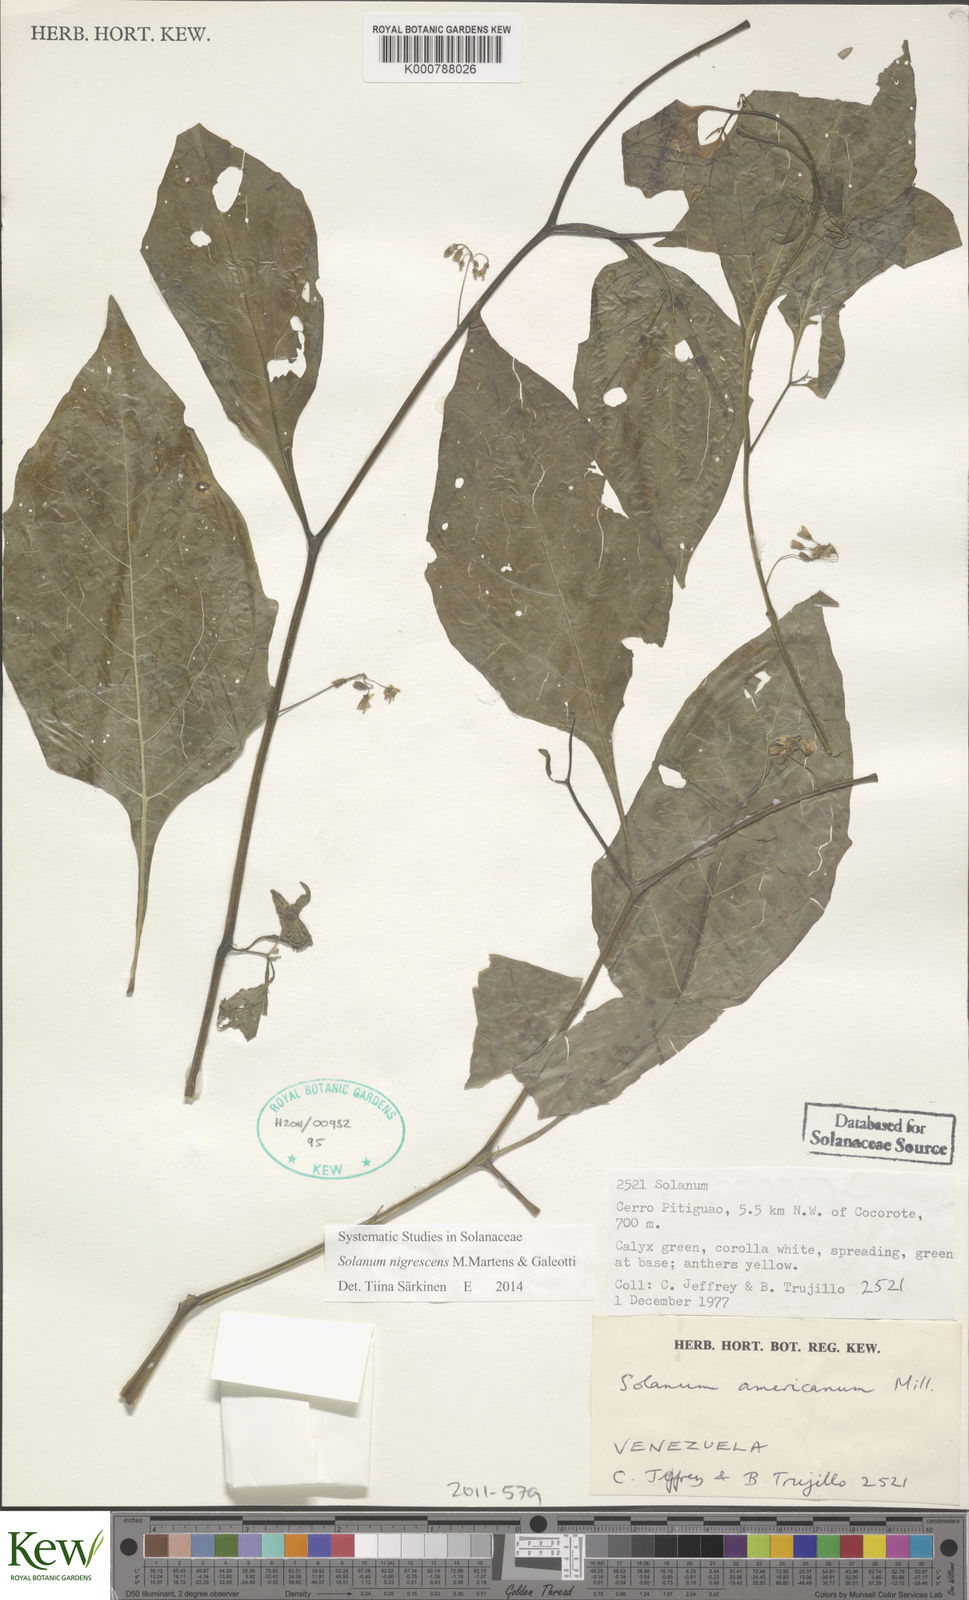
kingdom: Plantae
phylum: Tracheophyta
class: Magnoliopsida
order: Solanales
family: Solanaceae
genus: Solanum
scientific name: Solanum nigrescens
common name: Divine nightshade
